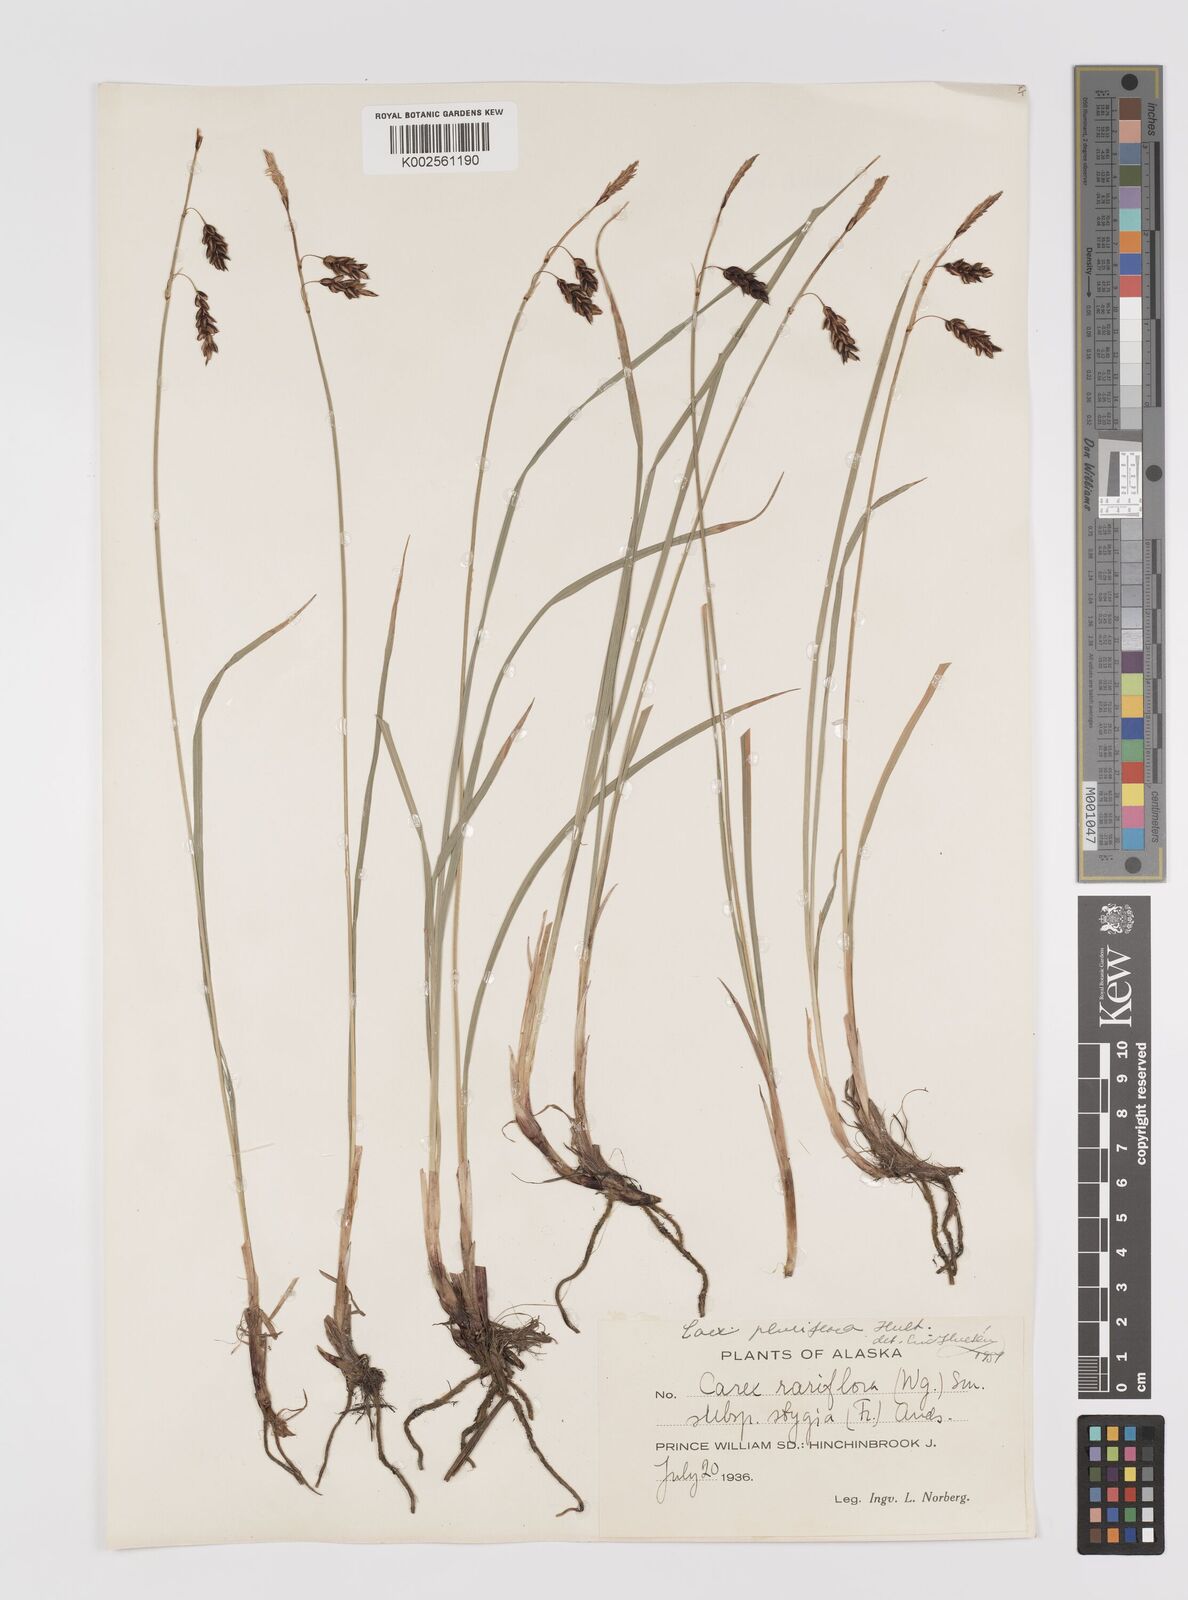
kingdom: Plantae
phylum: Tracheophyta
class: Liliopsida
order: Poales
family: Cyperaceae
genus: Carex
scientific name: Carex pluriflora
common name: Manyflower sedge
